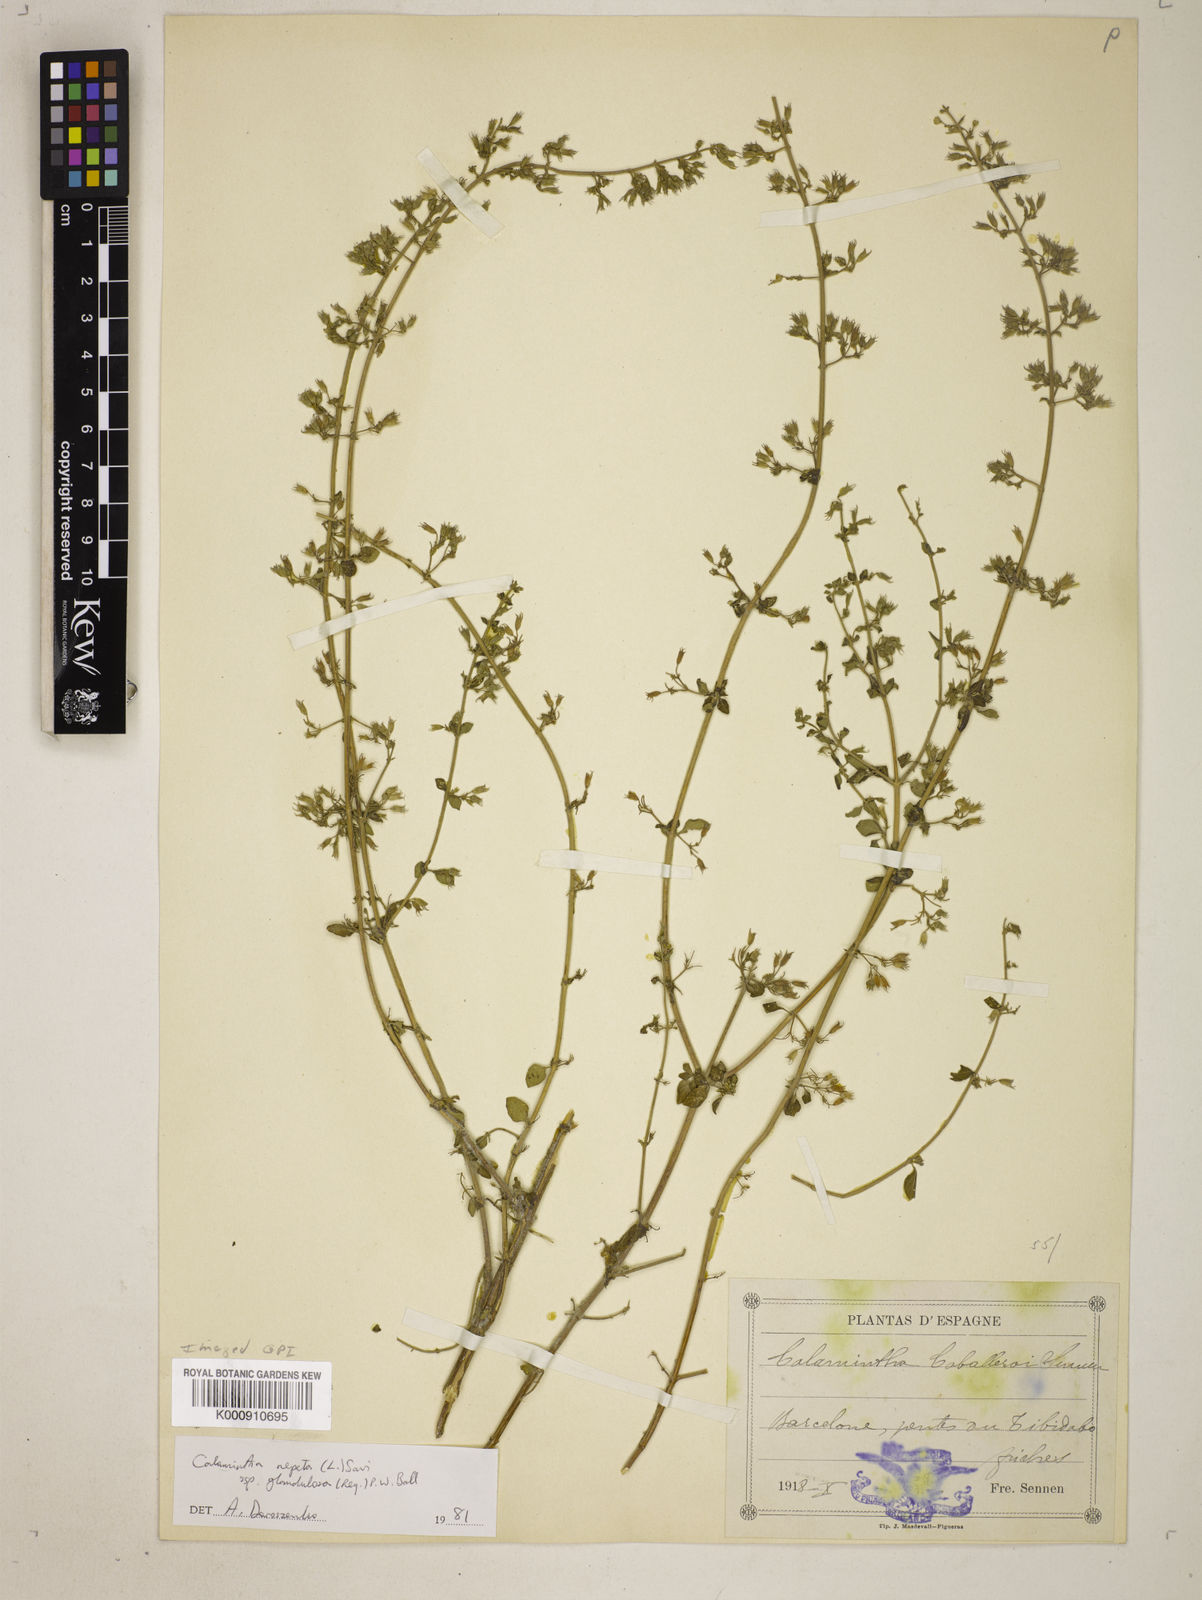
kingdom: Plantae
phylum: Tracheophyta
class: Magnoliopsida
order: Lamiales
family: Lamiaceae
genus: Clinopodium
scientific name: Clinopodium
